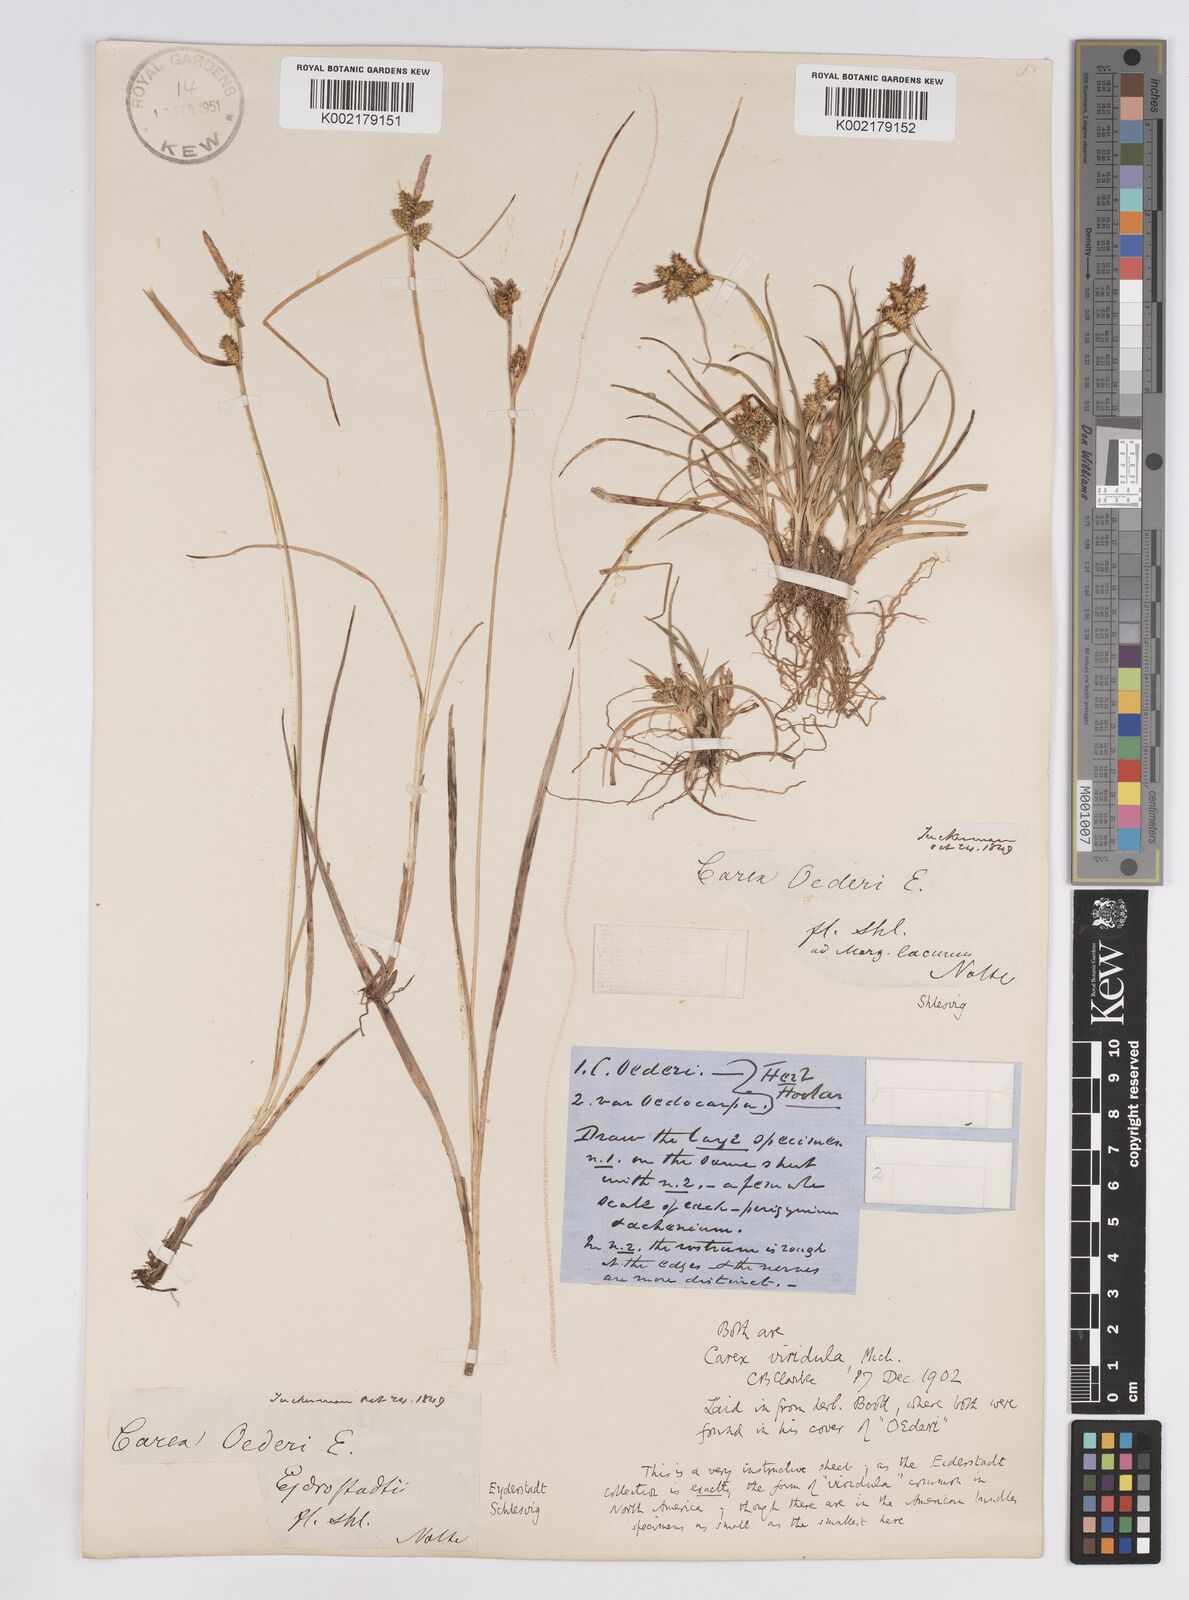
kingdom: Plantae
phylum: Tracheophyta
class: Liliopsida
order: Poales
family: Cyperaceae
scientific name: Cyperaceae
